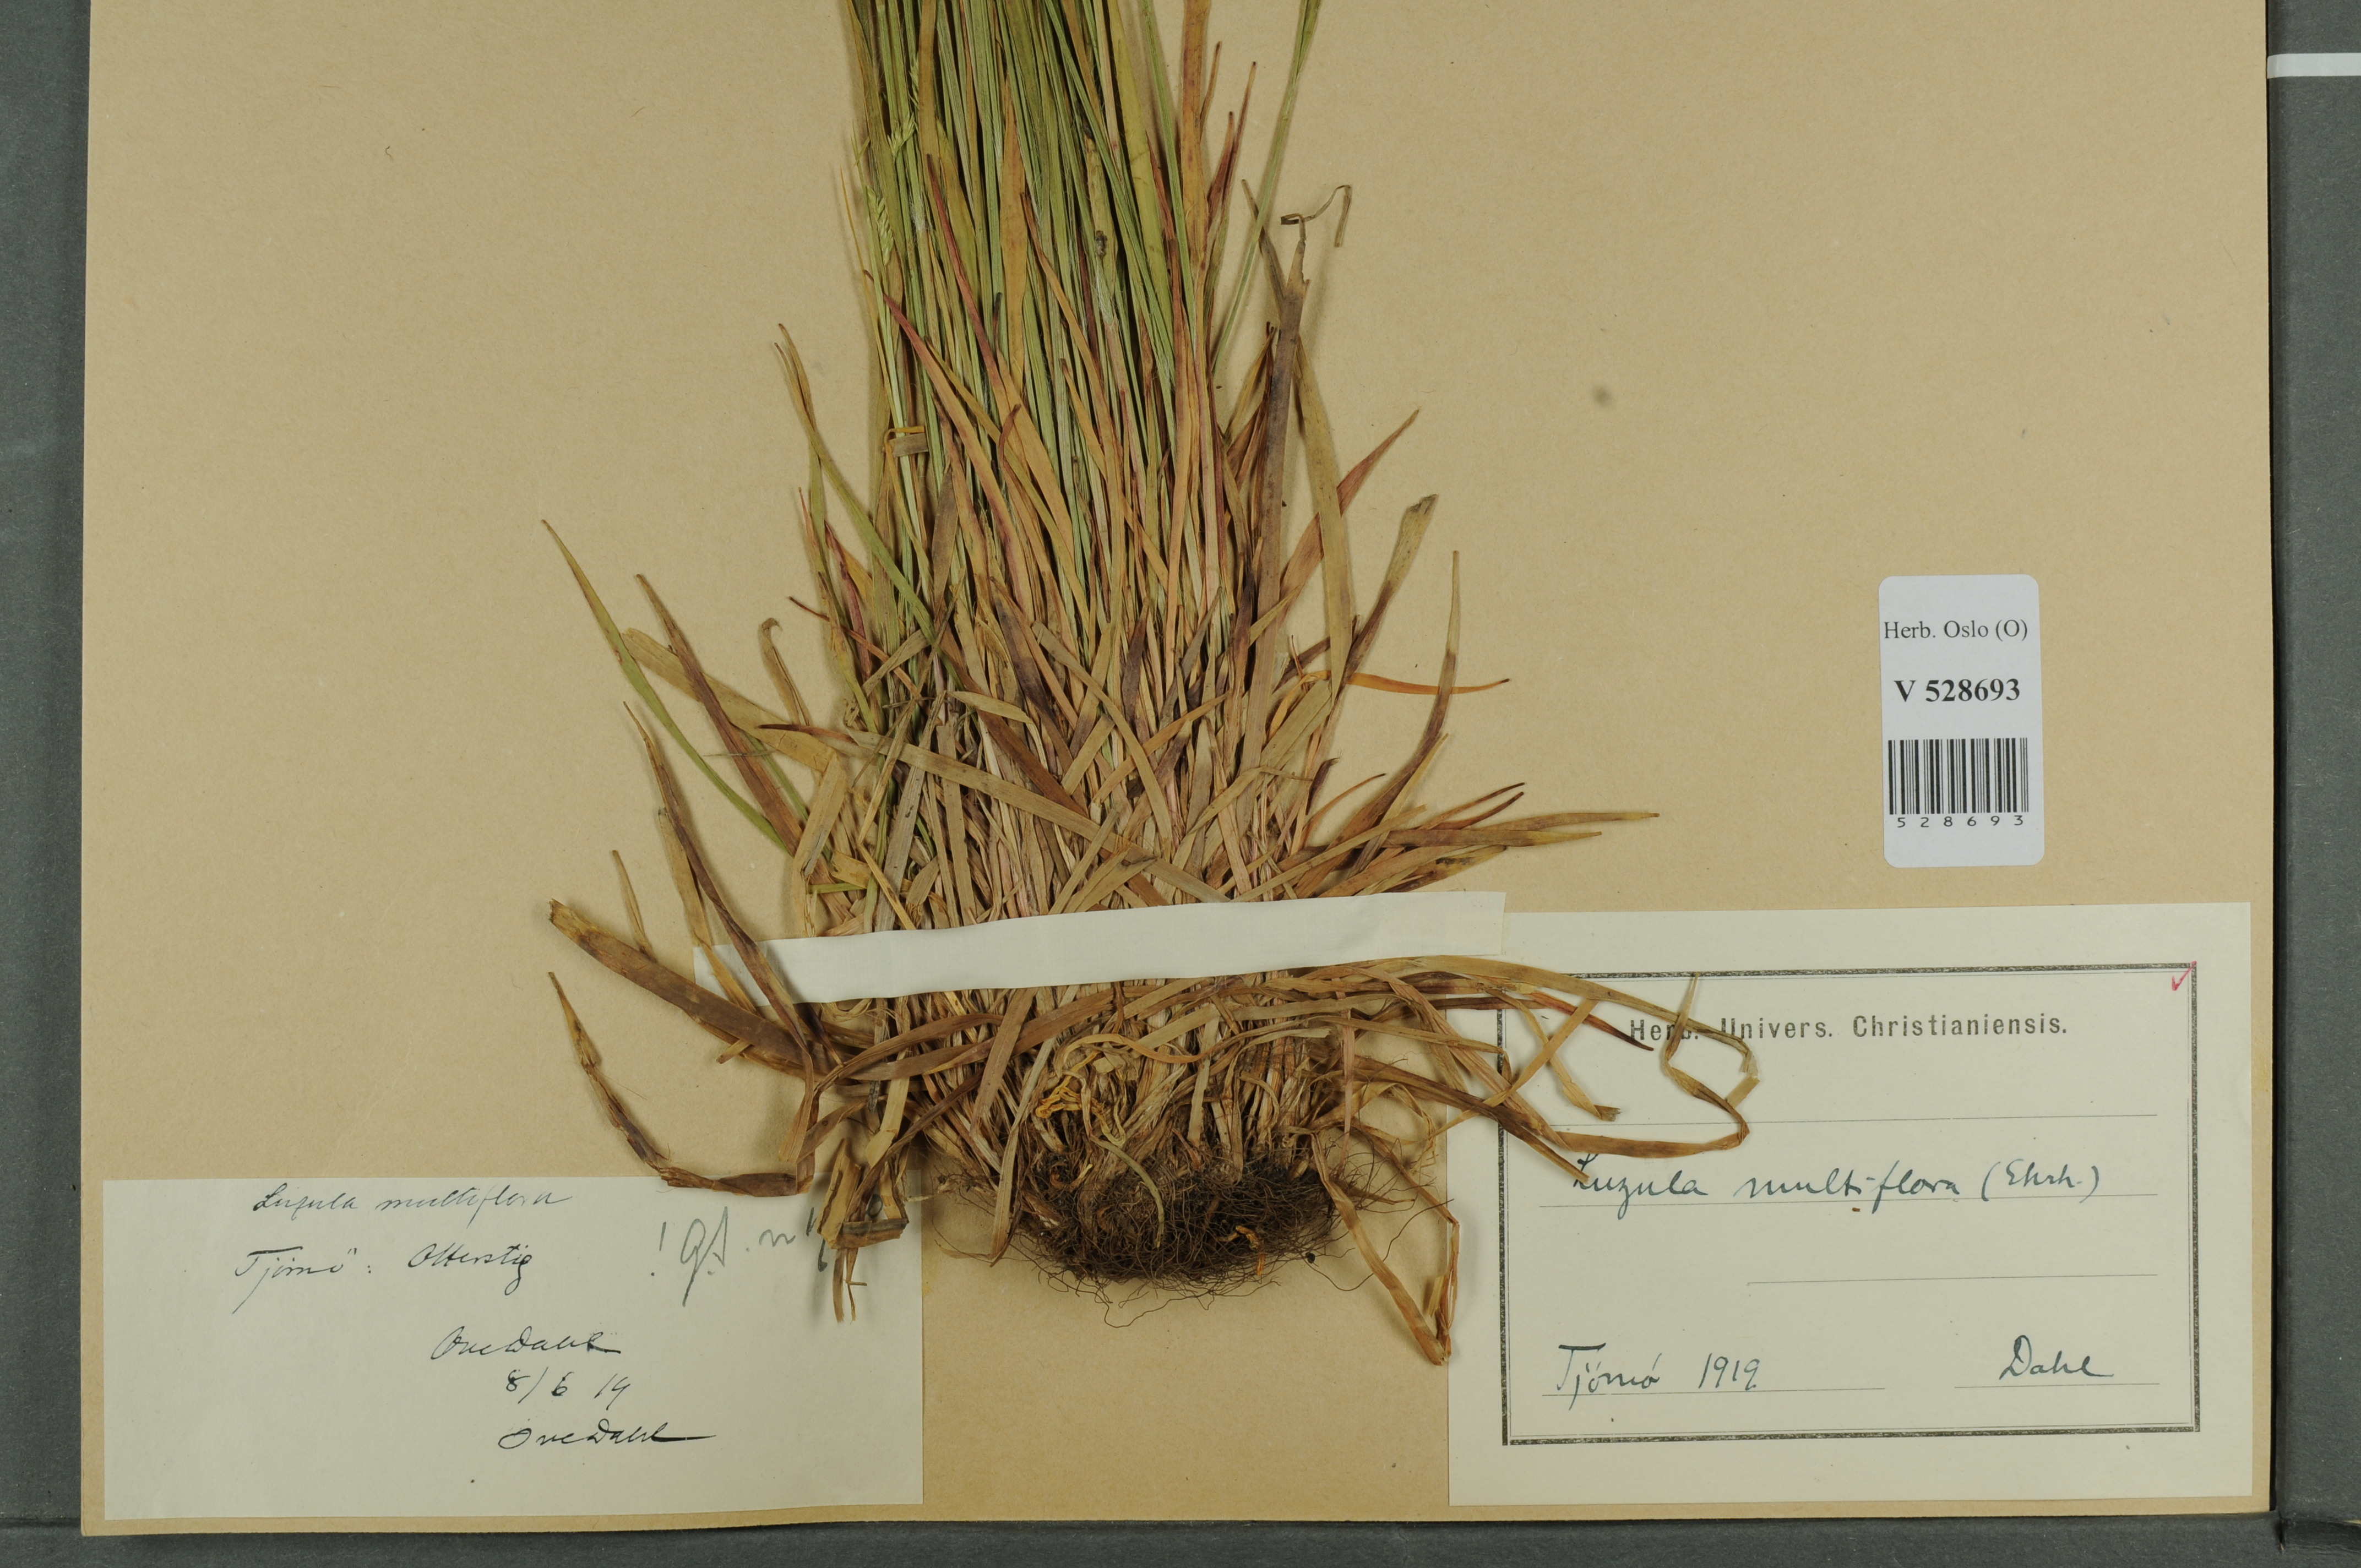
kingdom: Plantae
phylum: Tracheophyta
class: Liliopsida
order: Poales
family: Juncaceae
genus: Luzula
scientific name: Luzula multiflora
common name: Heath wood-rush
